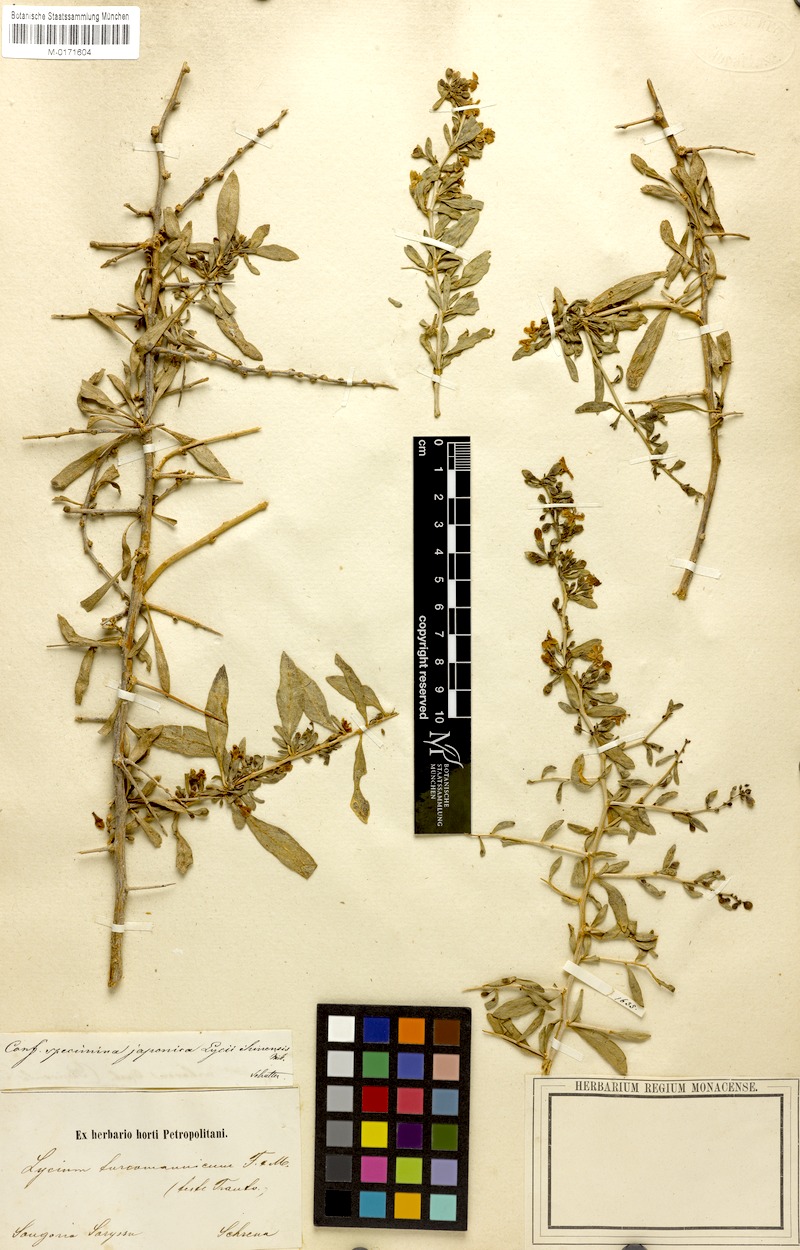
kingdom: Plantae
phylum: Tracheophyta
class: Magnoliopsida
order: Solanales
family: Solanaceae
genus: Lycium
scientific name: Lycium depressum
